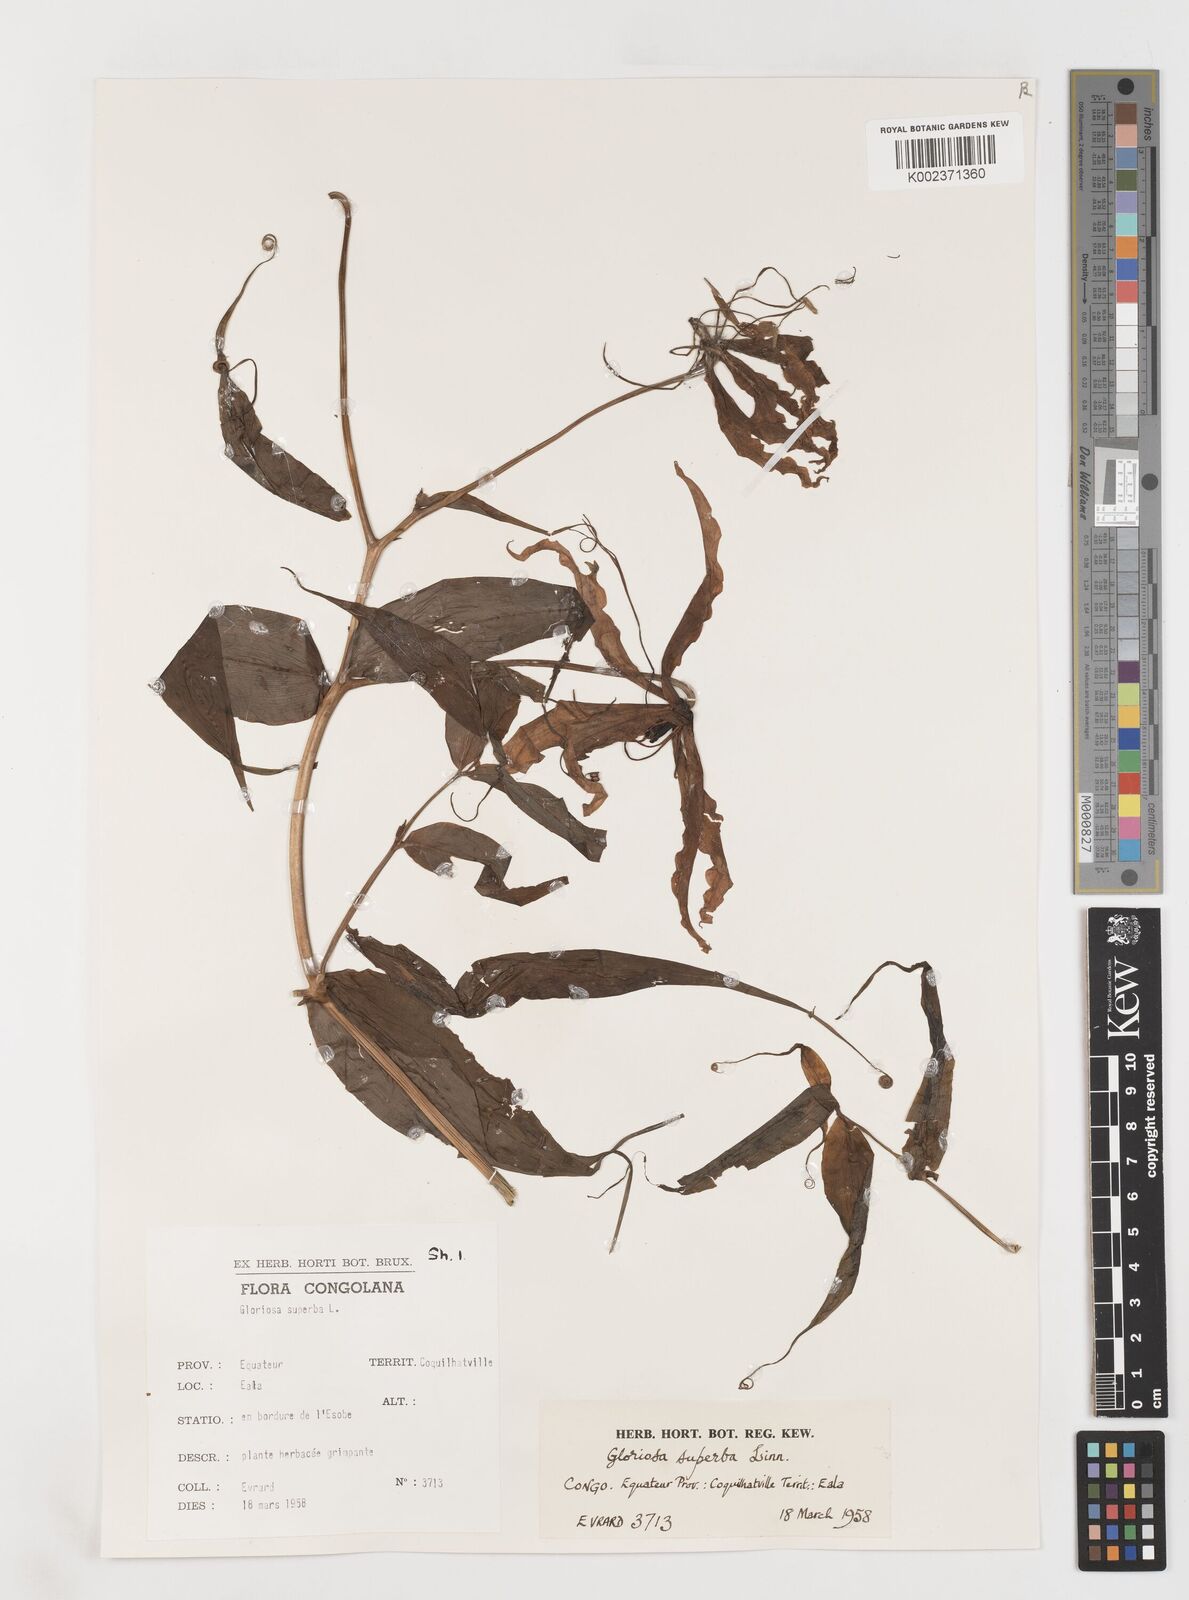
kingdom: Plantae
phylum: Tracheophyta
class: Liliopsida
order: Liliales
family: Colchicaceae
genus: Gloriosa
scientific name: Gloriosa superba
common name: Flame lily
